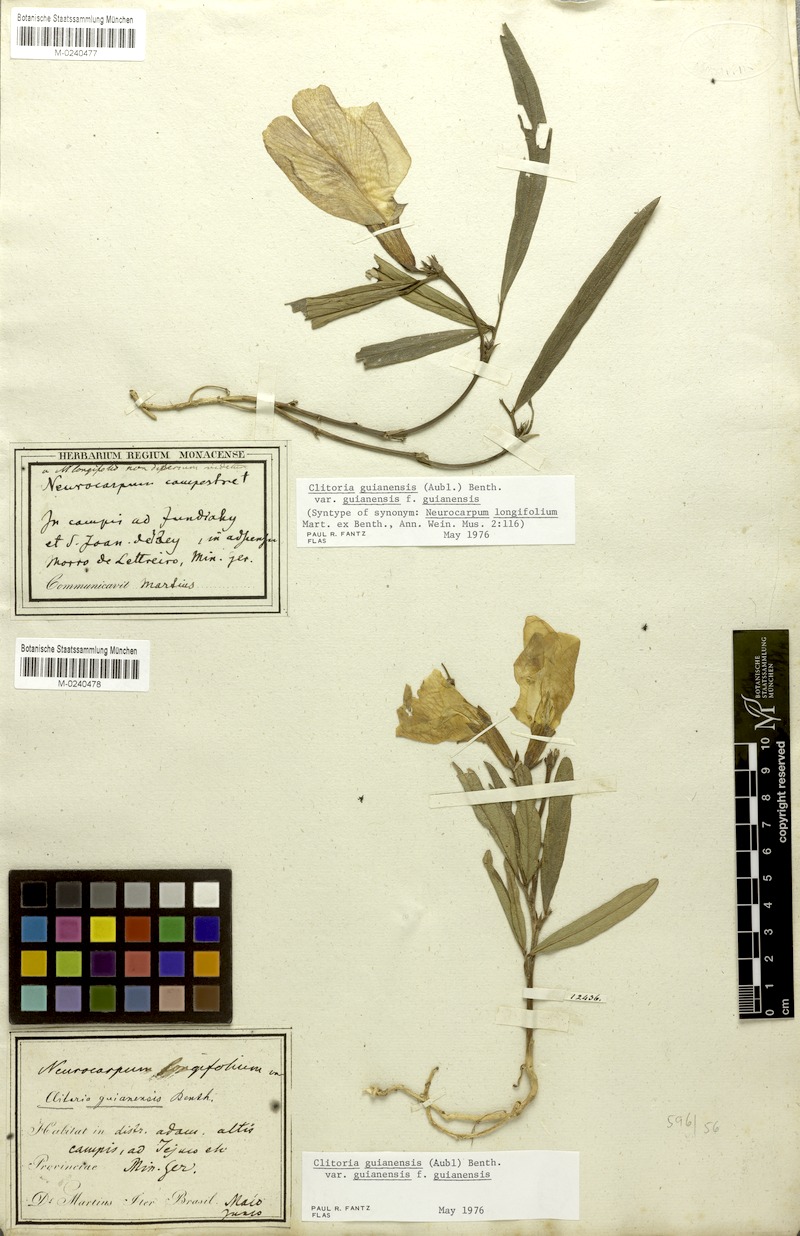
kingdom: Plantae
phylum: Tracheophyta
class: Magnoliopsida
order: Fabales
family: Fabaceae
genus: Clitoria
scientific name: Clitoria guianensis
